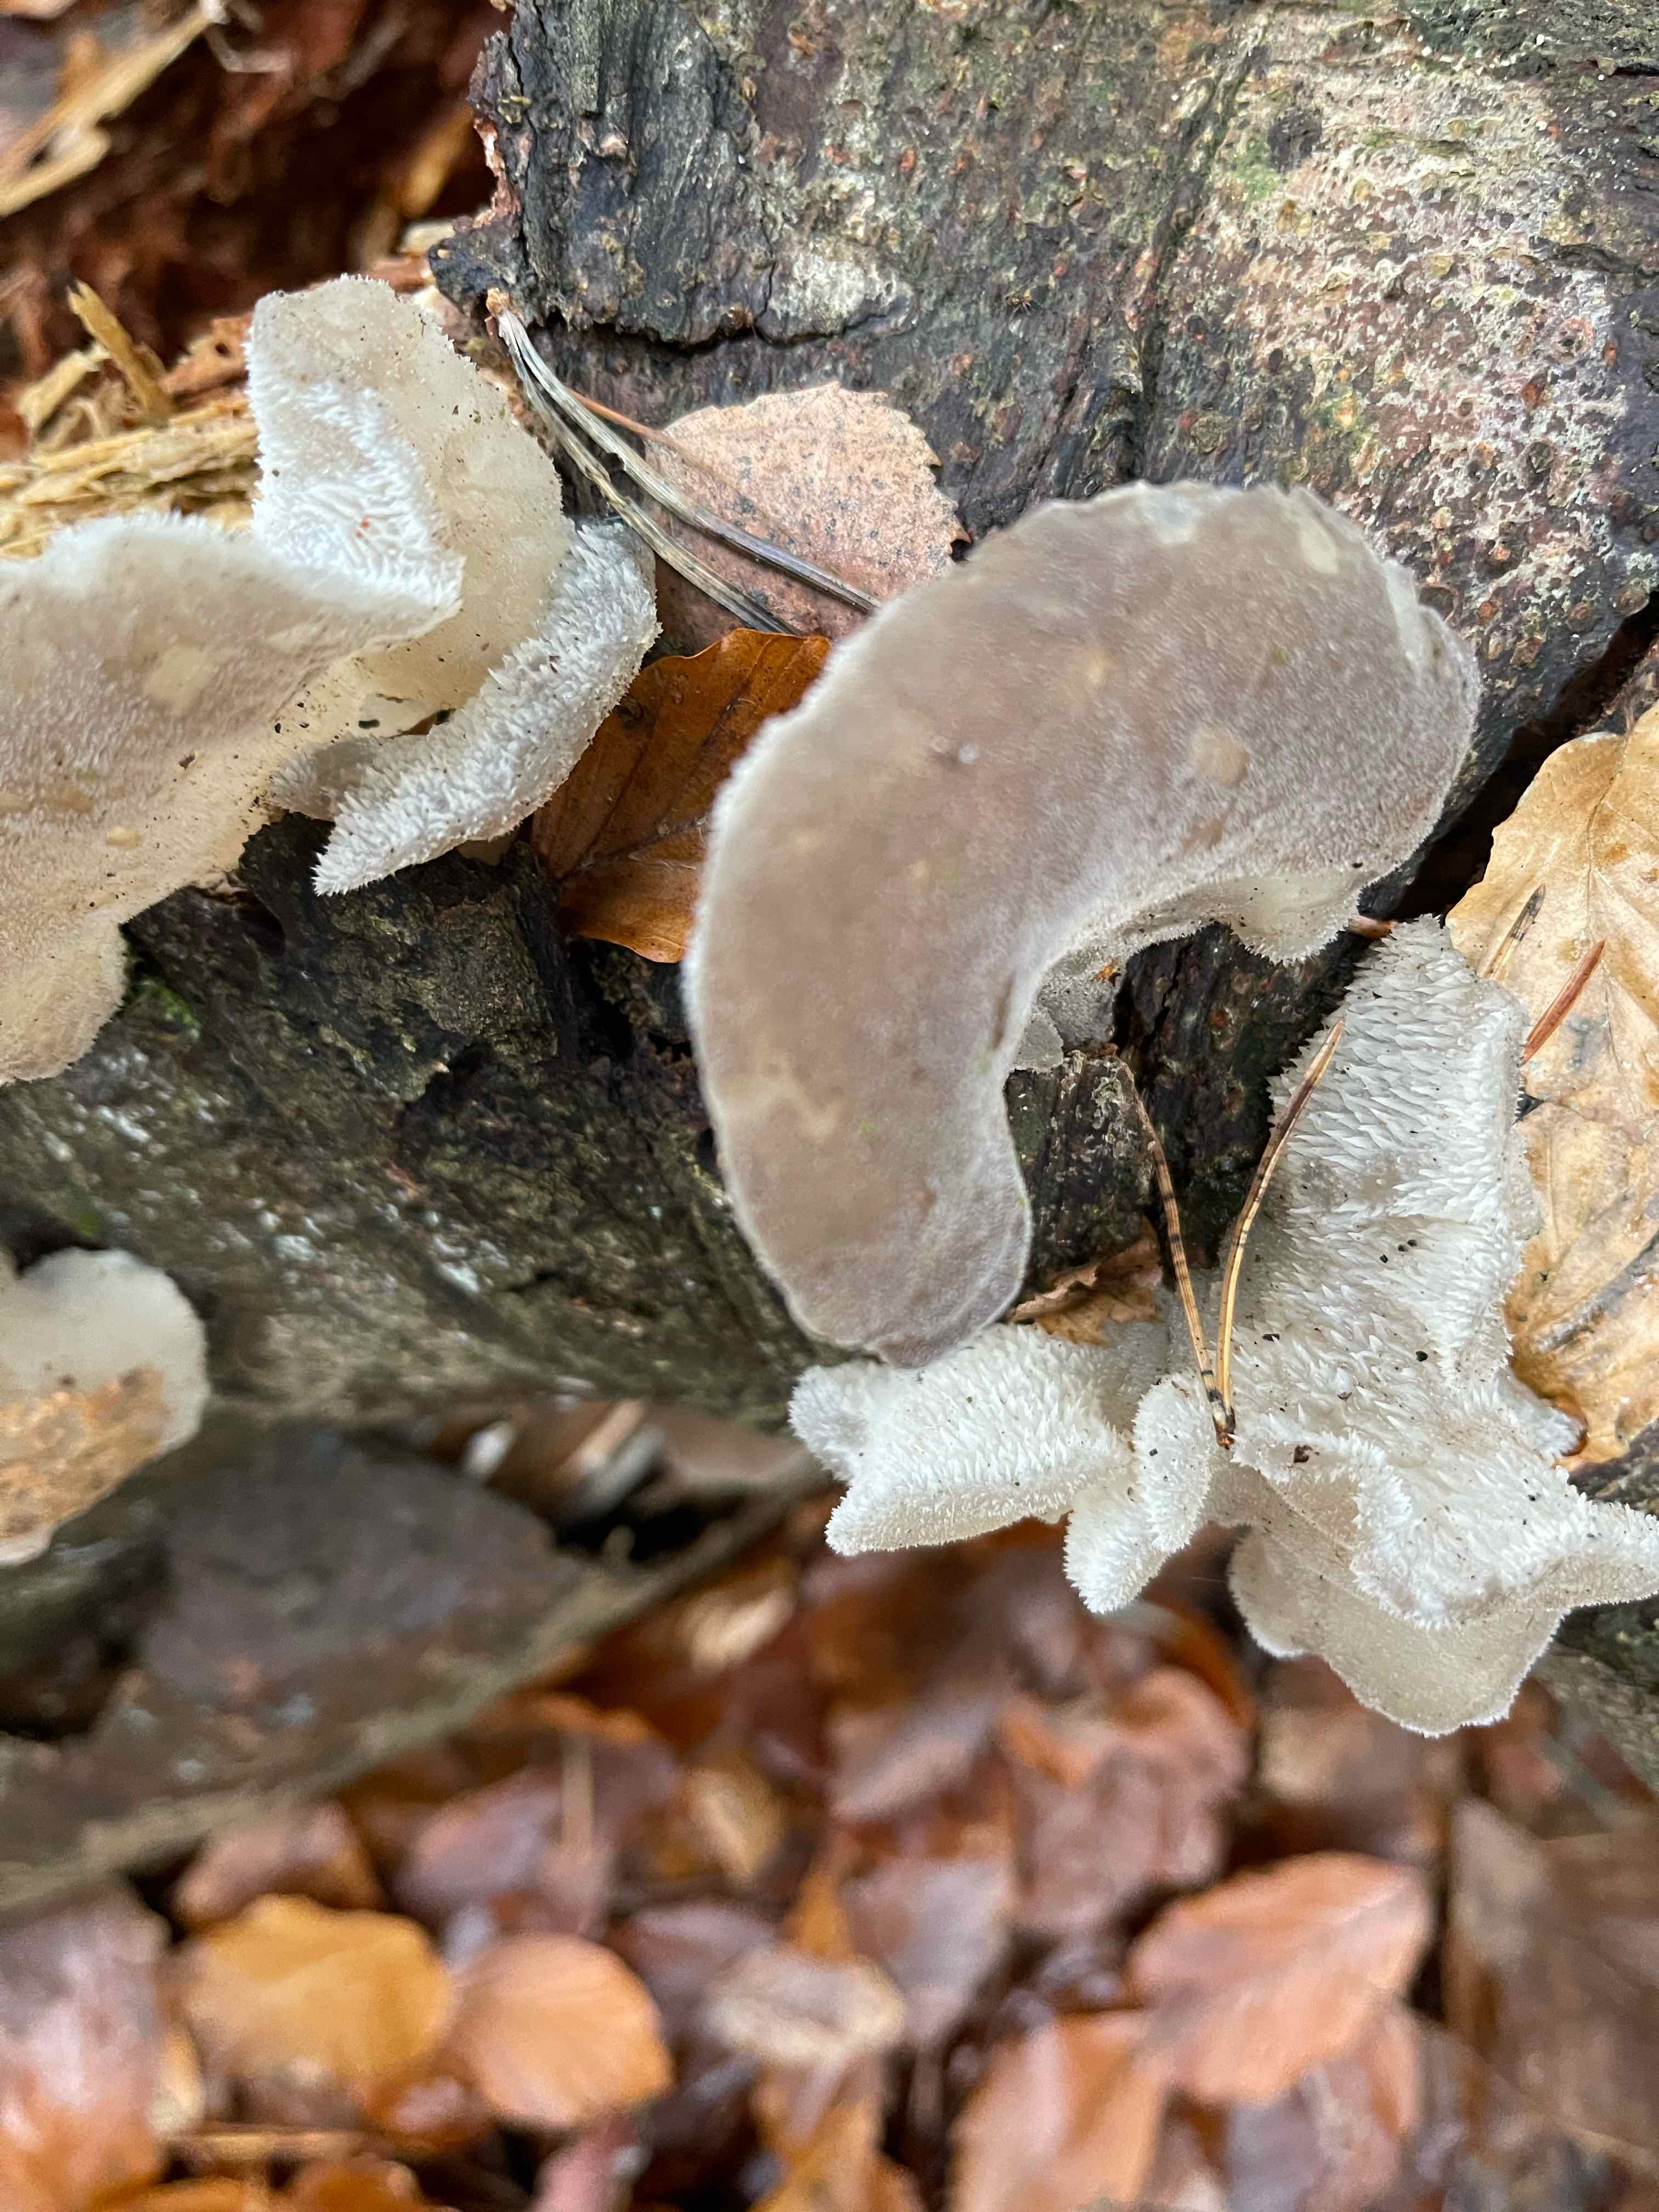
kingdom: Fungi
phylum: Basidiomycota
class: Agaricomycetes
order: Auriculariales
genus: Pseudohydnum
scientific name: Pseudohydnum gelatinosum
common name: bævretand
